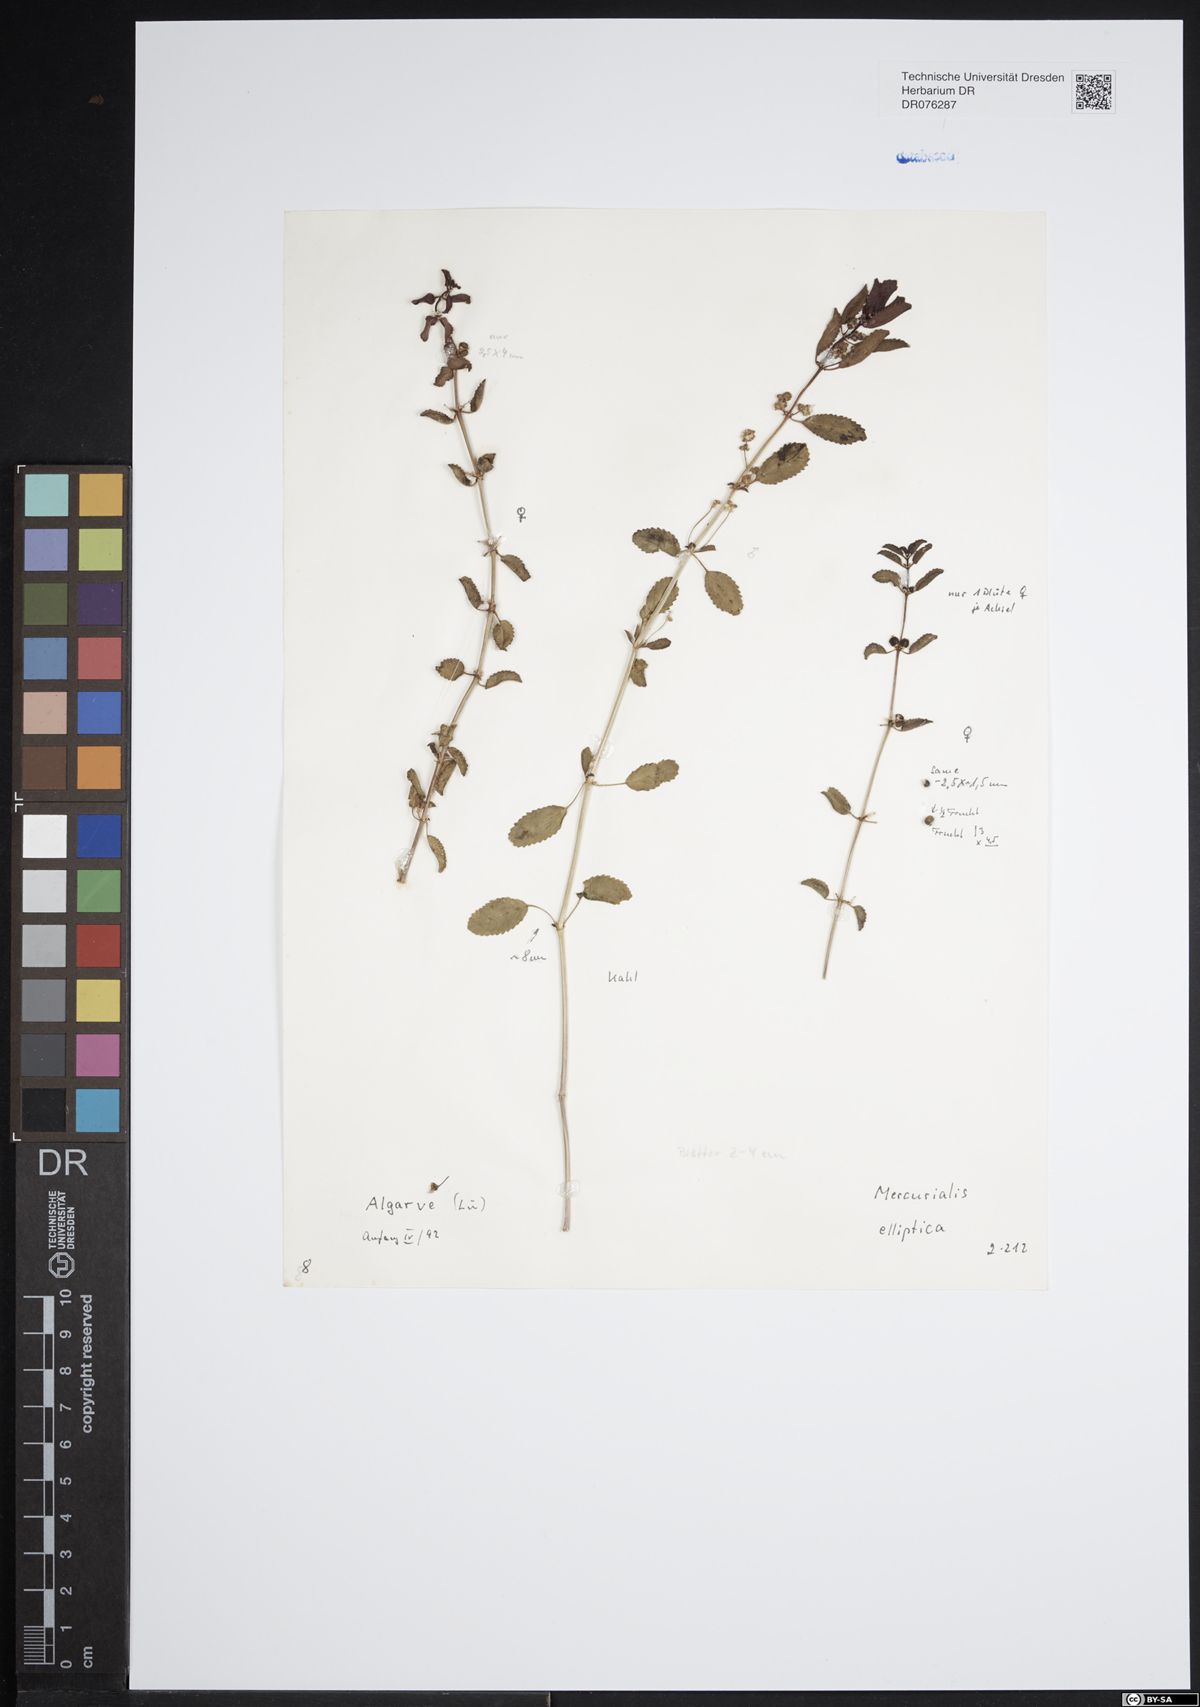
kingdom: Plantae
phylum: Tracheophyta
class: Magnoliopsida
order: Malpighiales
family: Euphorbiaceae
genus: Mercurialis
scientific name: Mercurialis elliptica
